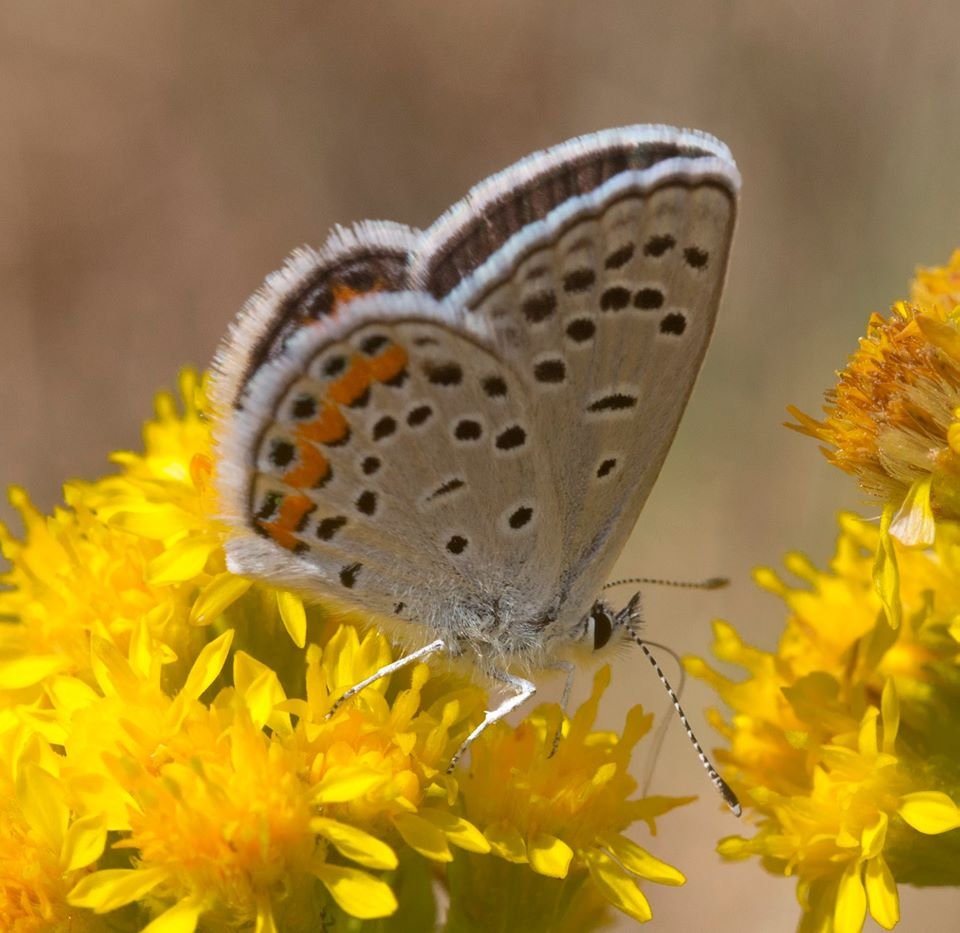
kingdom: Animalia
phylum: Arthropoda
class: Insecta
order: Lepidoptera
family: Lycaenidae
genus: Plebejus
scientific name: Plebejus lupini
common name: Lupine Blue
